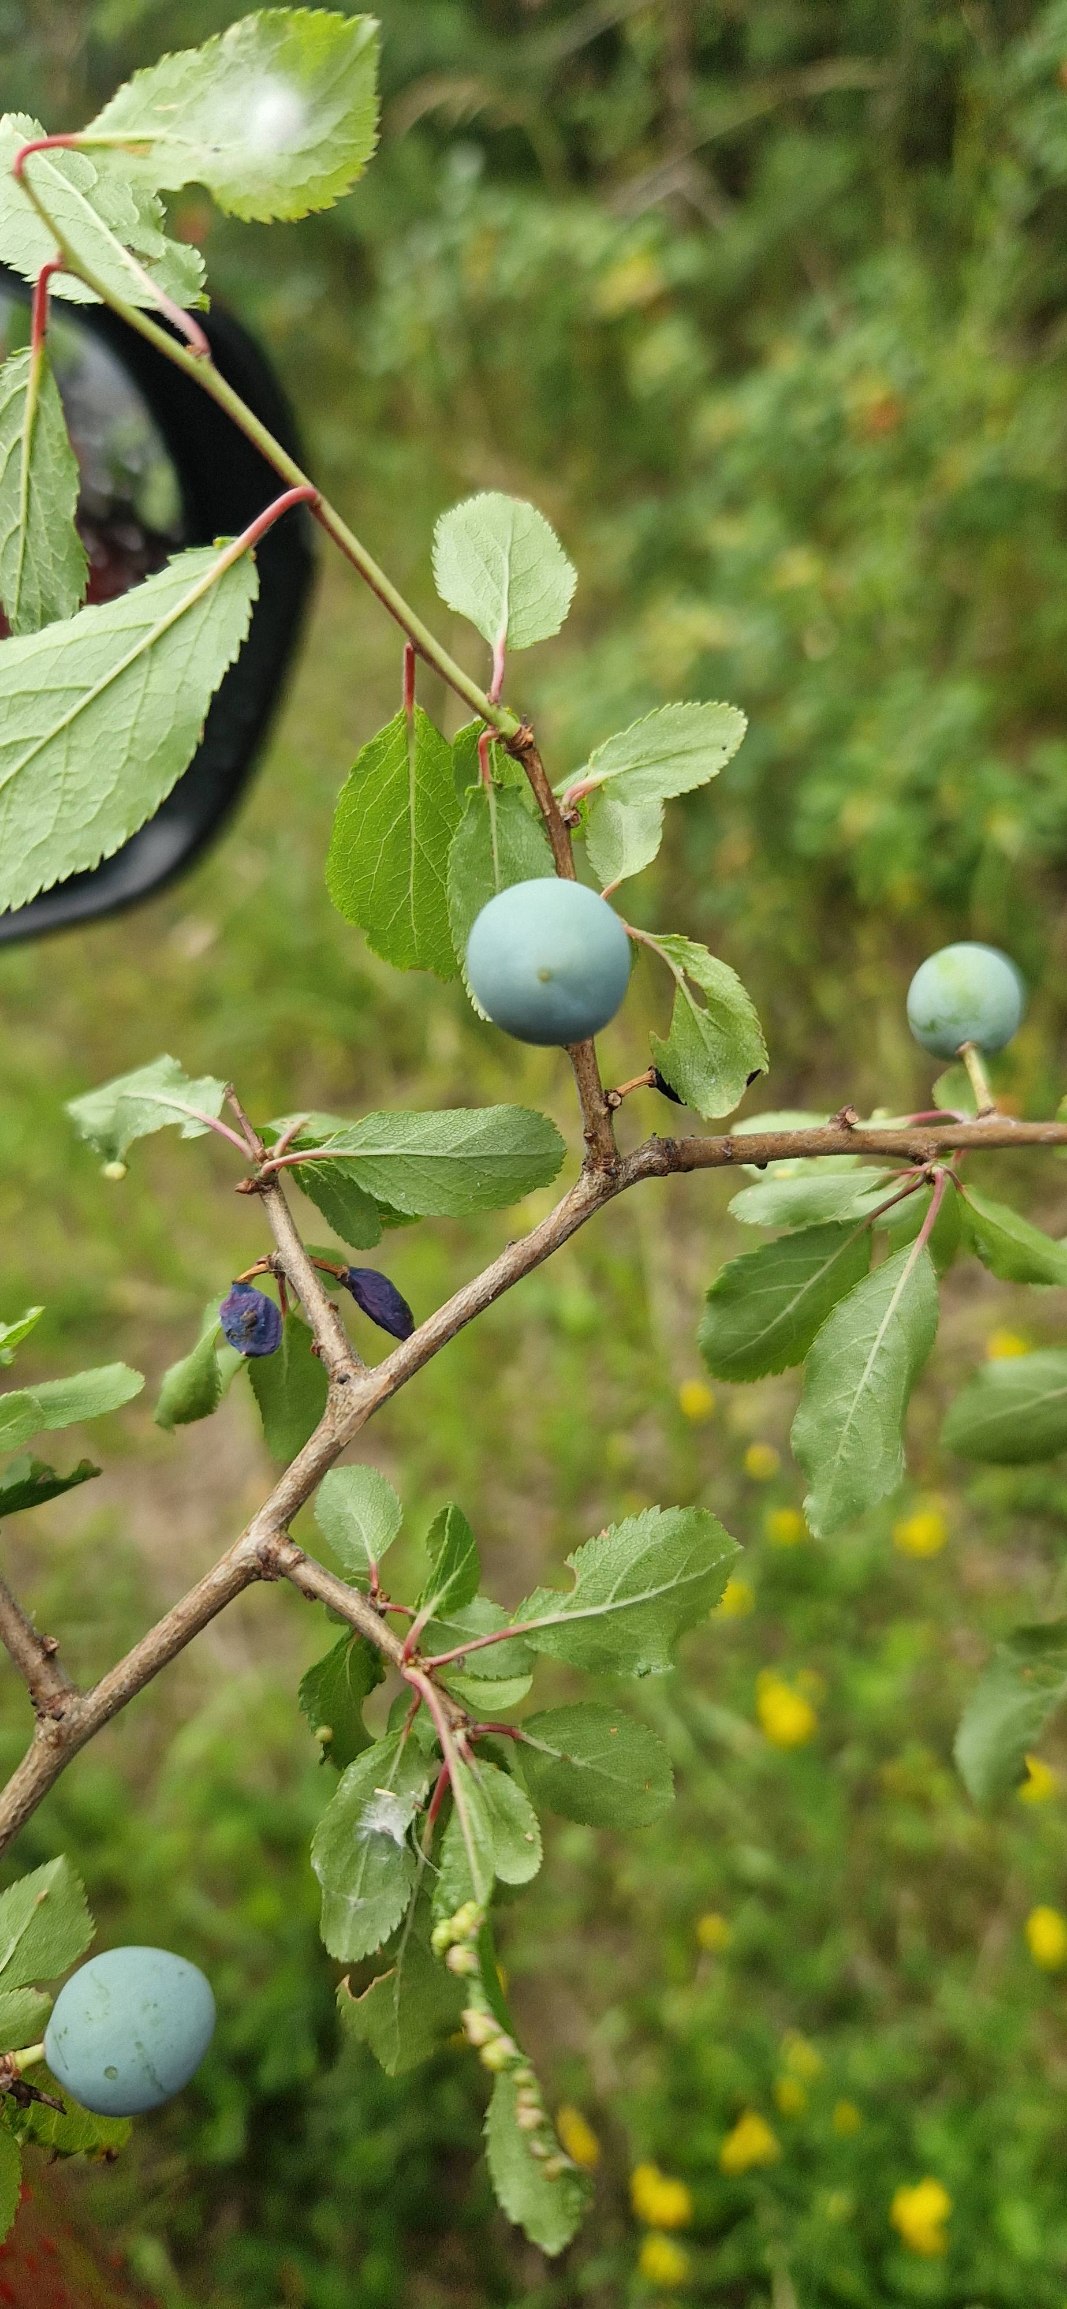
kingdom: Plantae
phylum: Tracheophyta
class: Magnoliopsida
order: Rosales
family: Rosaceae
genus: Prunus
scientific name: Prunus spinosa
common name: Slåen
